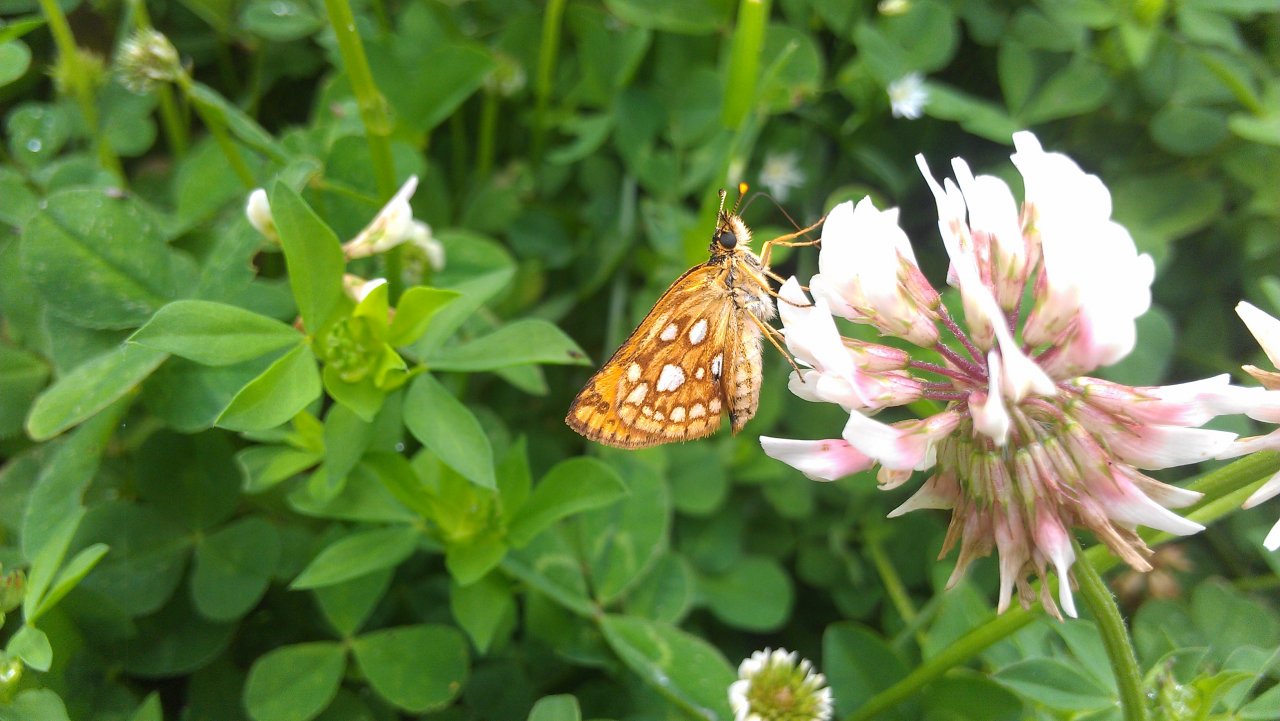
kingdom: Animalia
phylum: Arthropoda
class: Insecta
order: Lepidoptera
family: Hesperiidae
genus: Carterocephalus
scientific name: Carterocephalus palaemon
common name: Chequered Skipper
